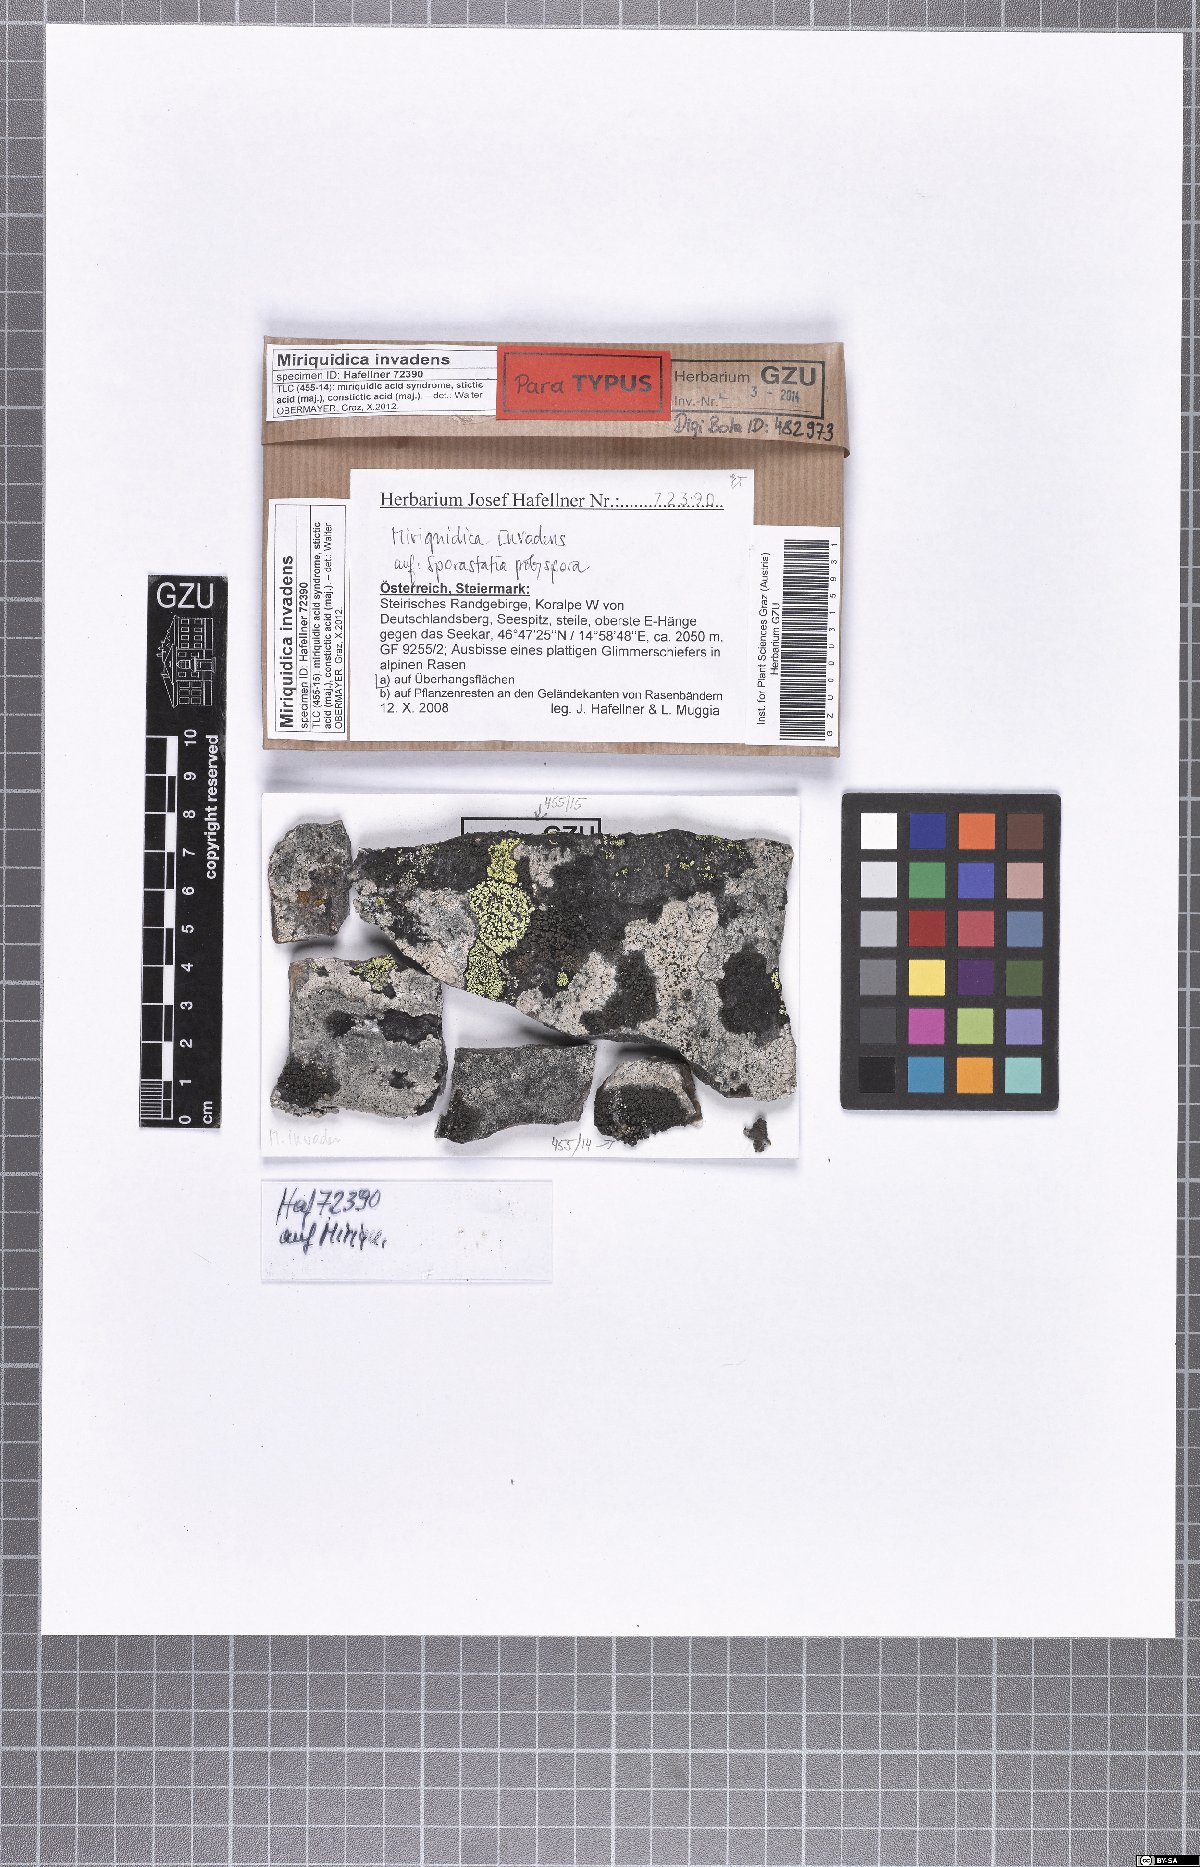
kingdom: Fungi
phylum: Ascomycota
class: Lecanoromycetes
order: Lecanorales
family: Lecanoraceae
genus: Miriquidica
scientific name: Miriquidica invadens
